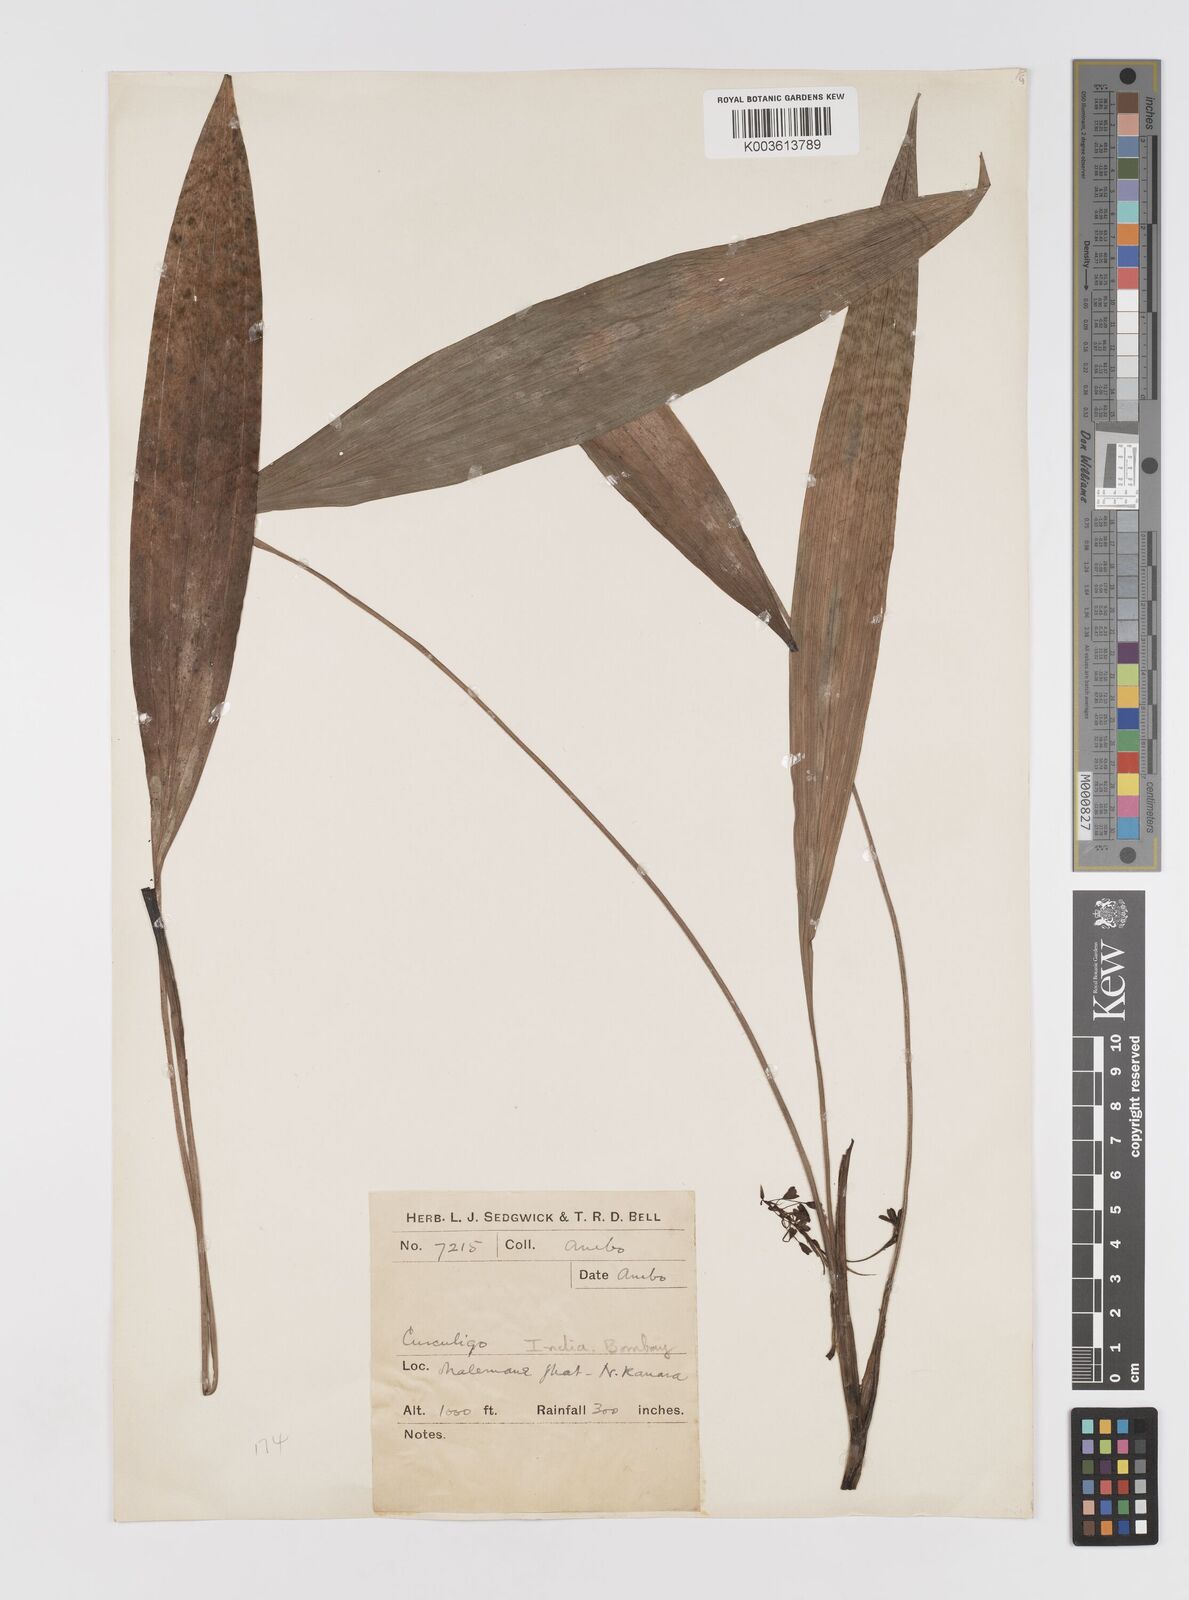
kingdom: Plantae
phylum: Tracheophyta
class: Liliopsida
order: Asparagales
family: Hypoxidaceae
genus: Curculigo
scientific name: Curculigo trichocarpa
